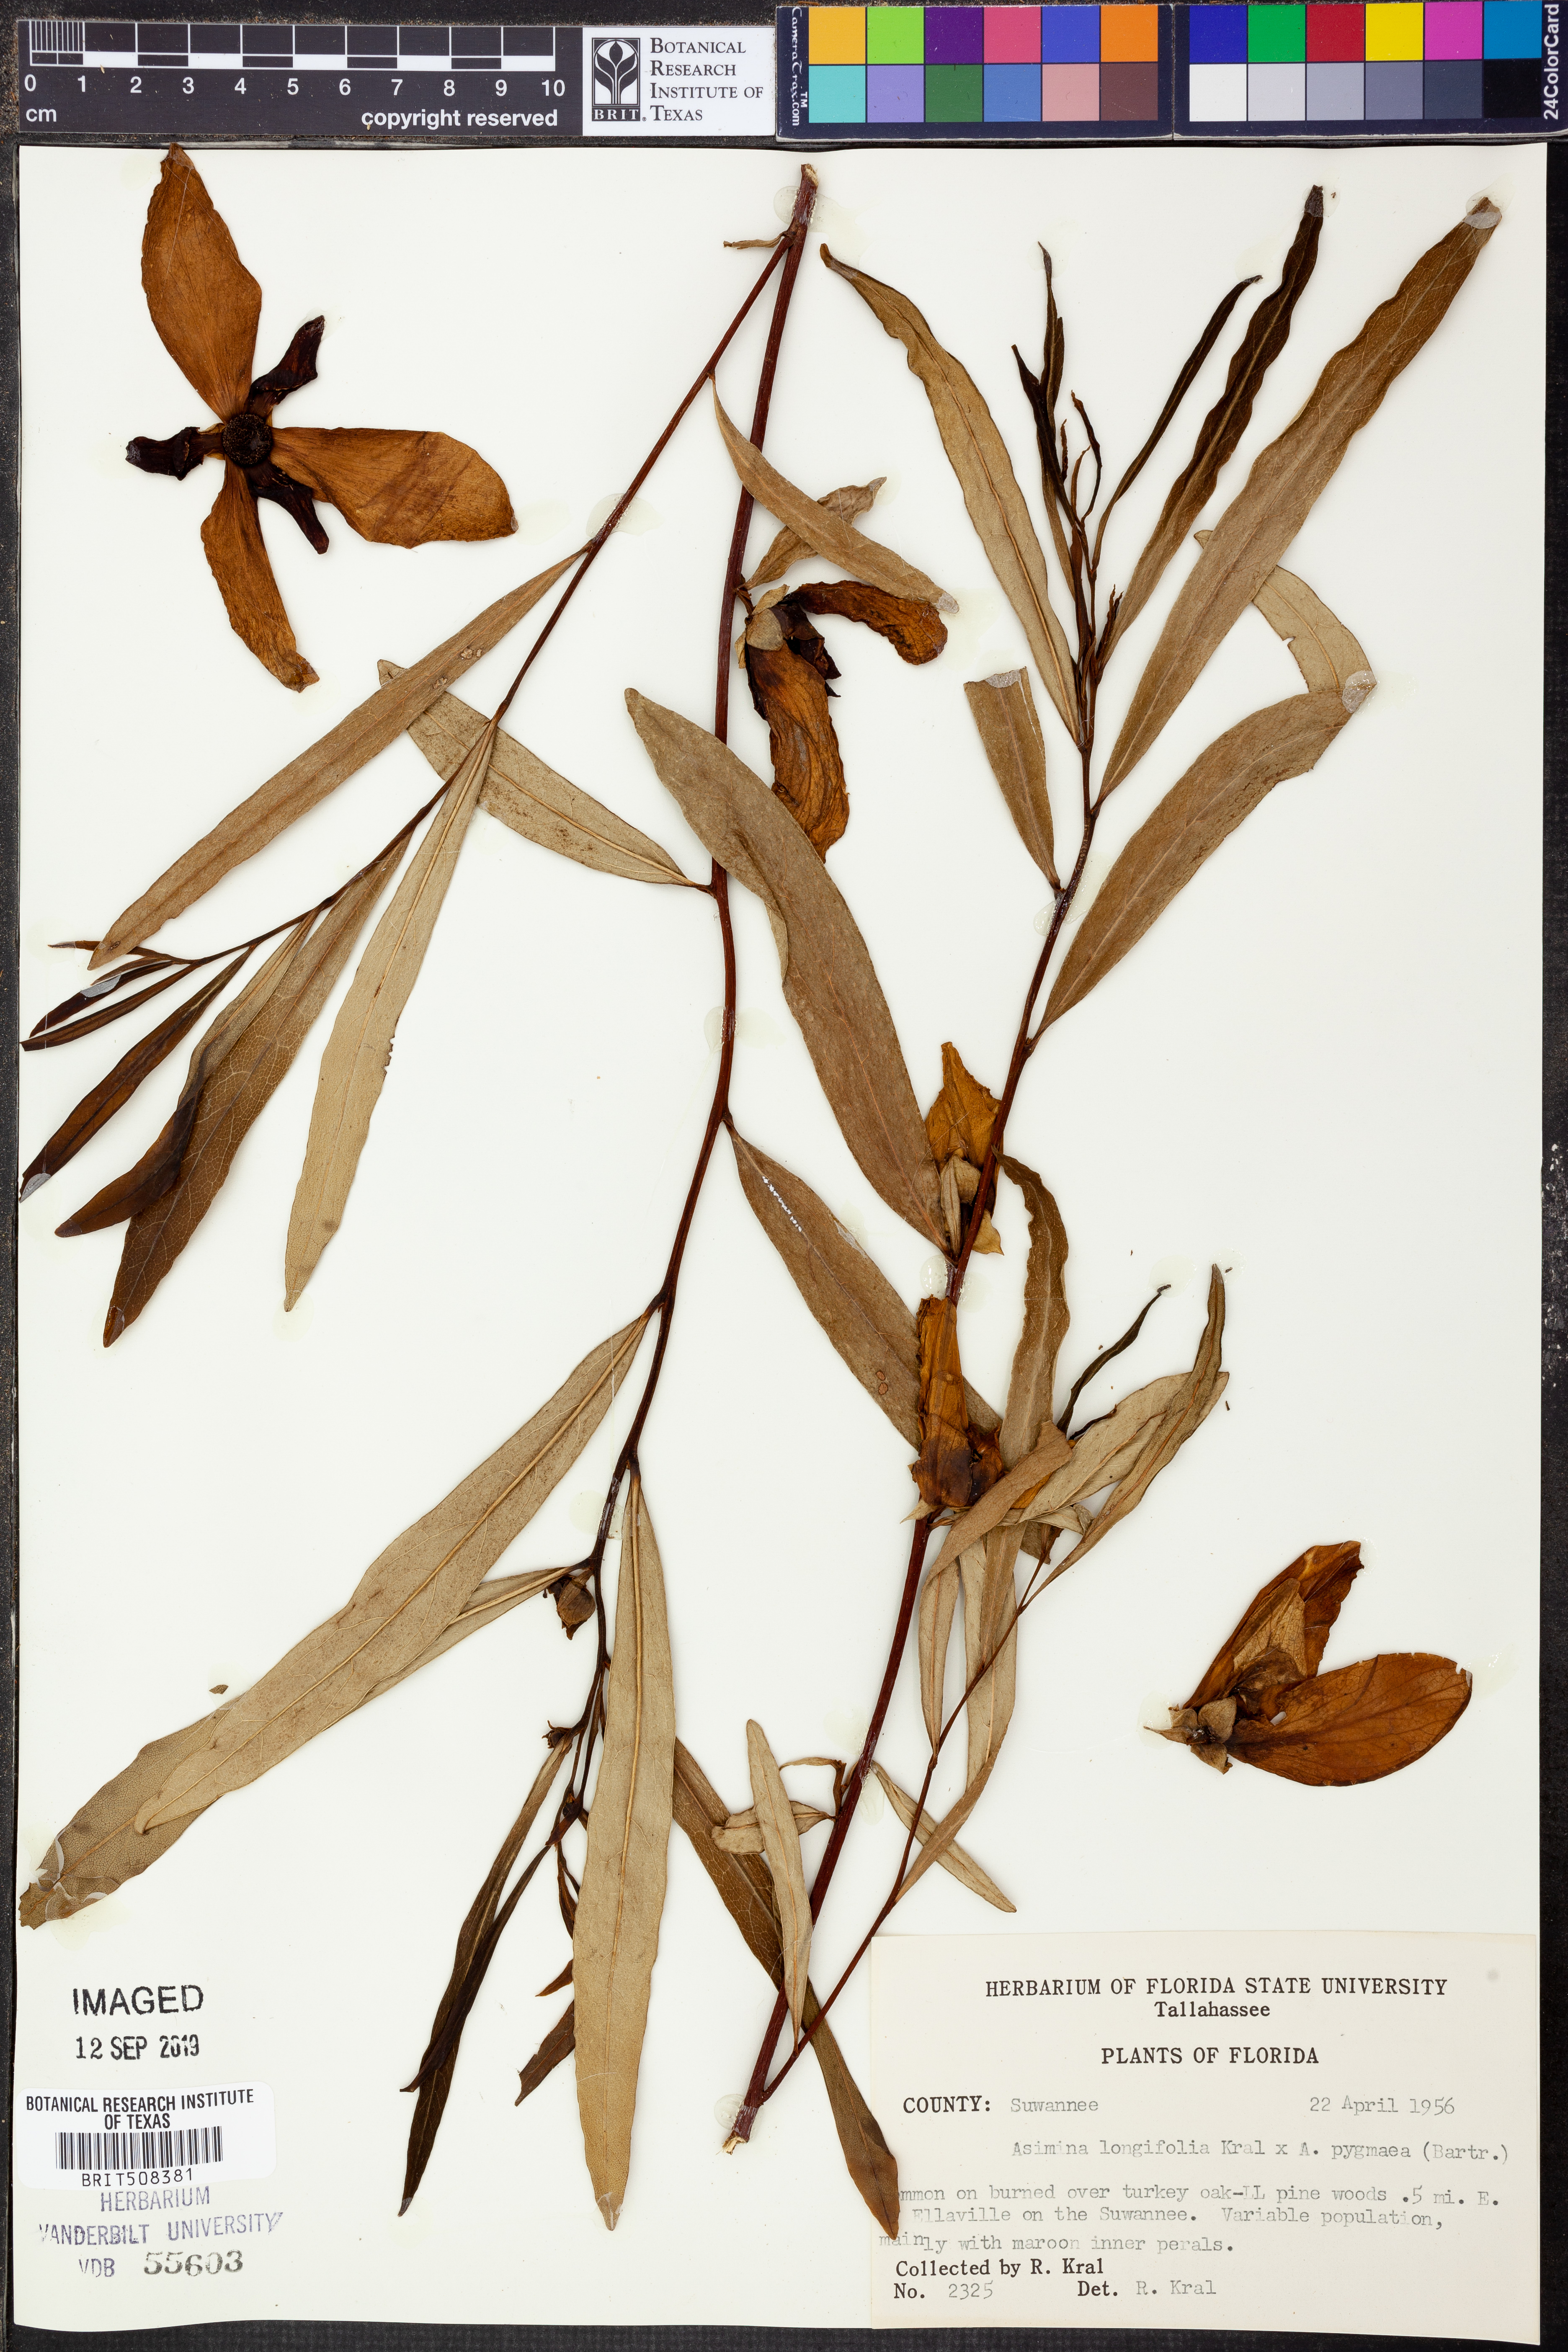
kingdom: Plantae
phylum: Tracheophyta
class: Magnoliopsida
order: Magnoliales
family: Annonaceae
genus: Asimina
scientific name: Asimina longifolia
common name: Polecatbush
